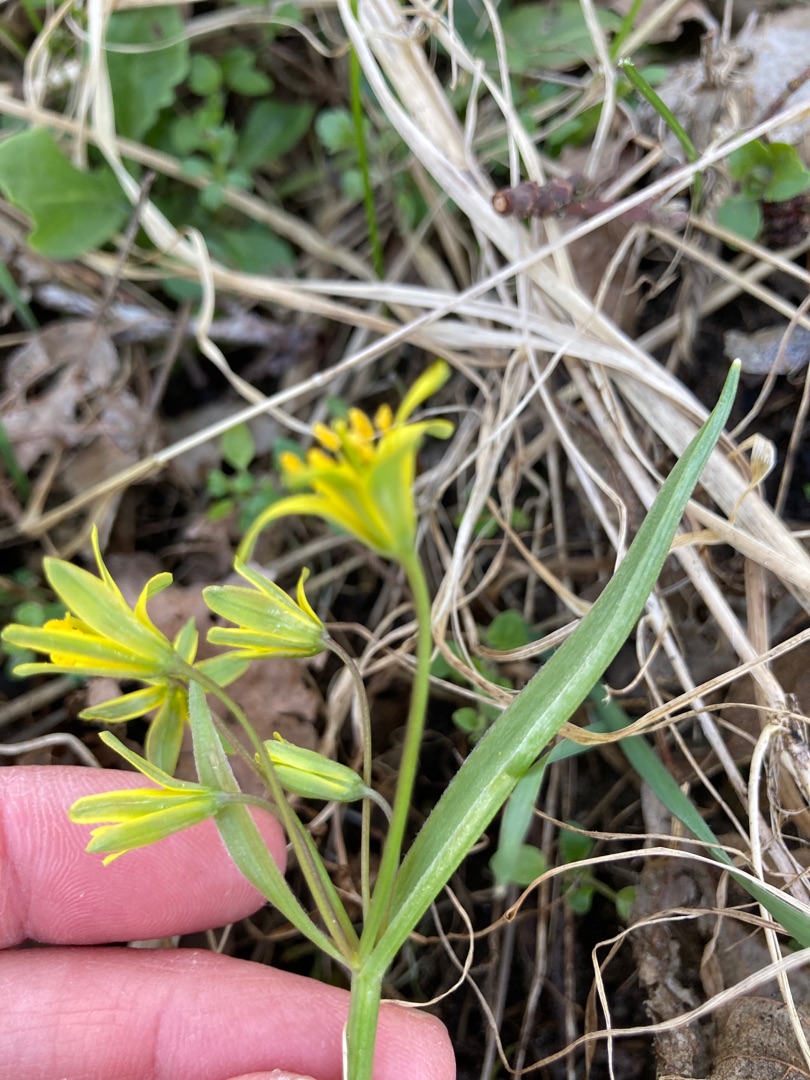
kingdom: Plantae
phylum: Tracheophyta
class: Liliopsida
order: Liliales
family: Liliaceae
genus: Gagea
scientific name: Gagea lutea
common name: Almindelig guldstjerne
